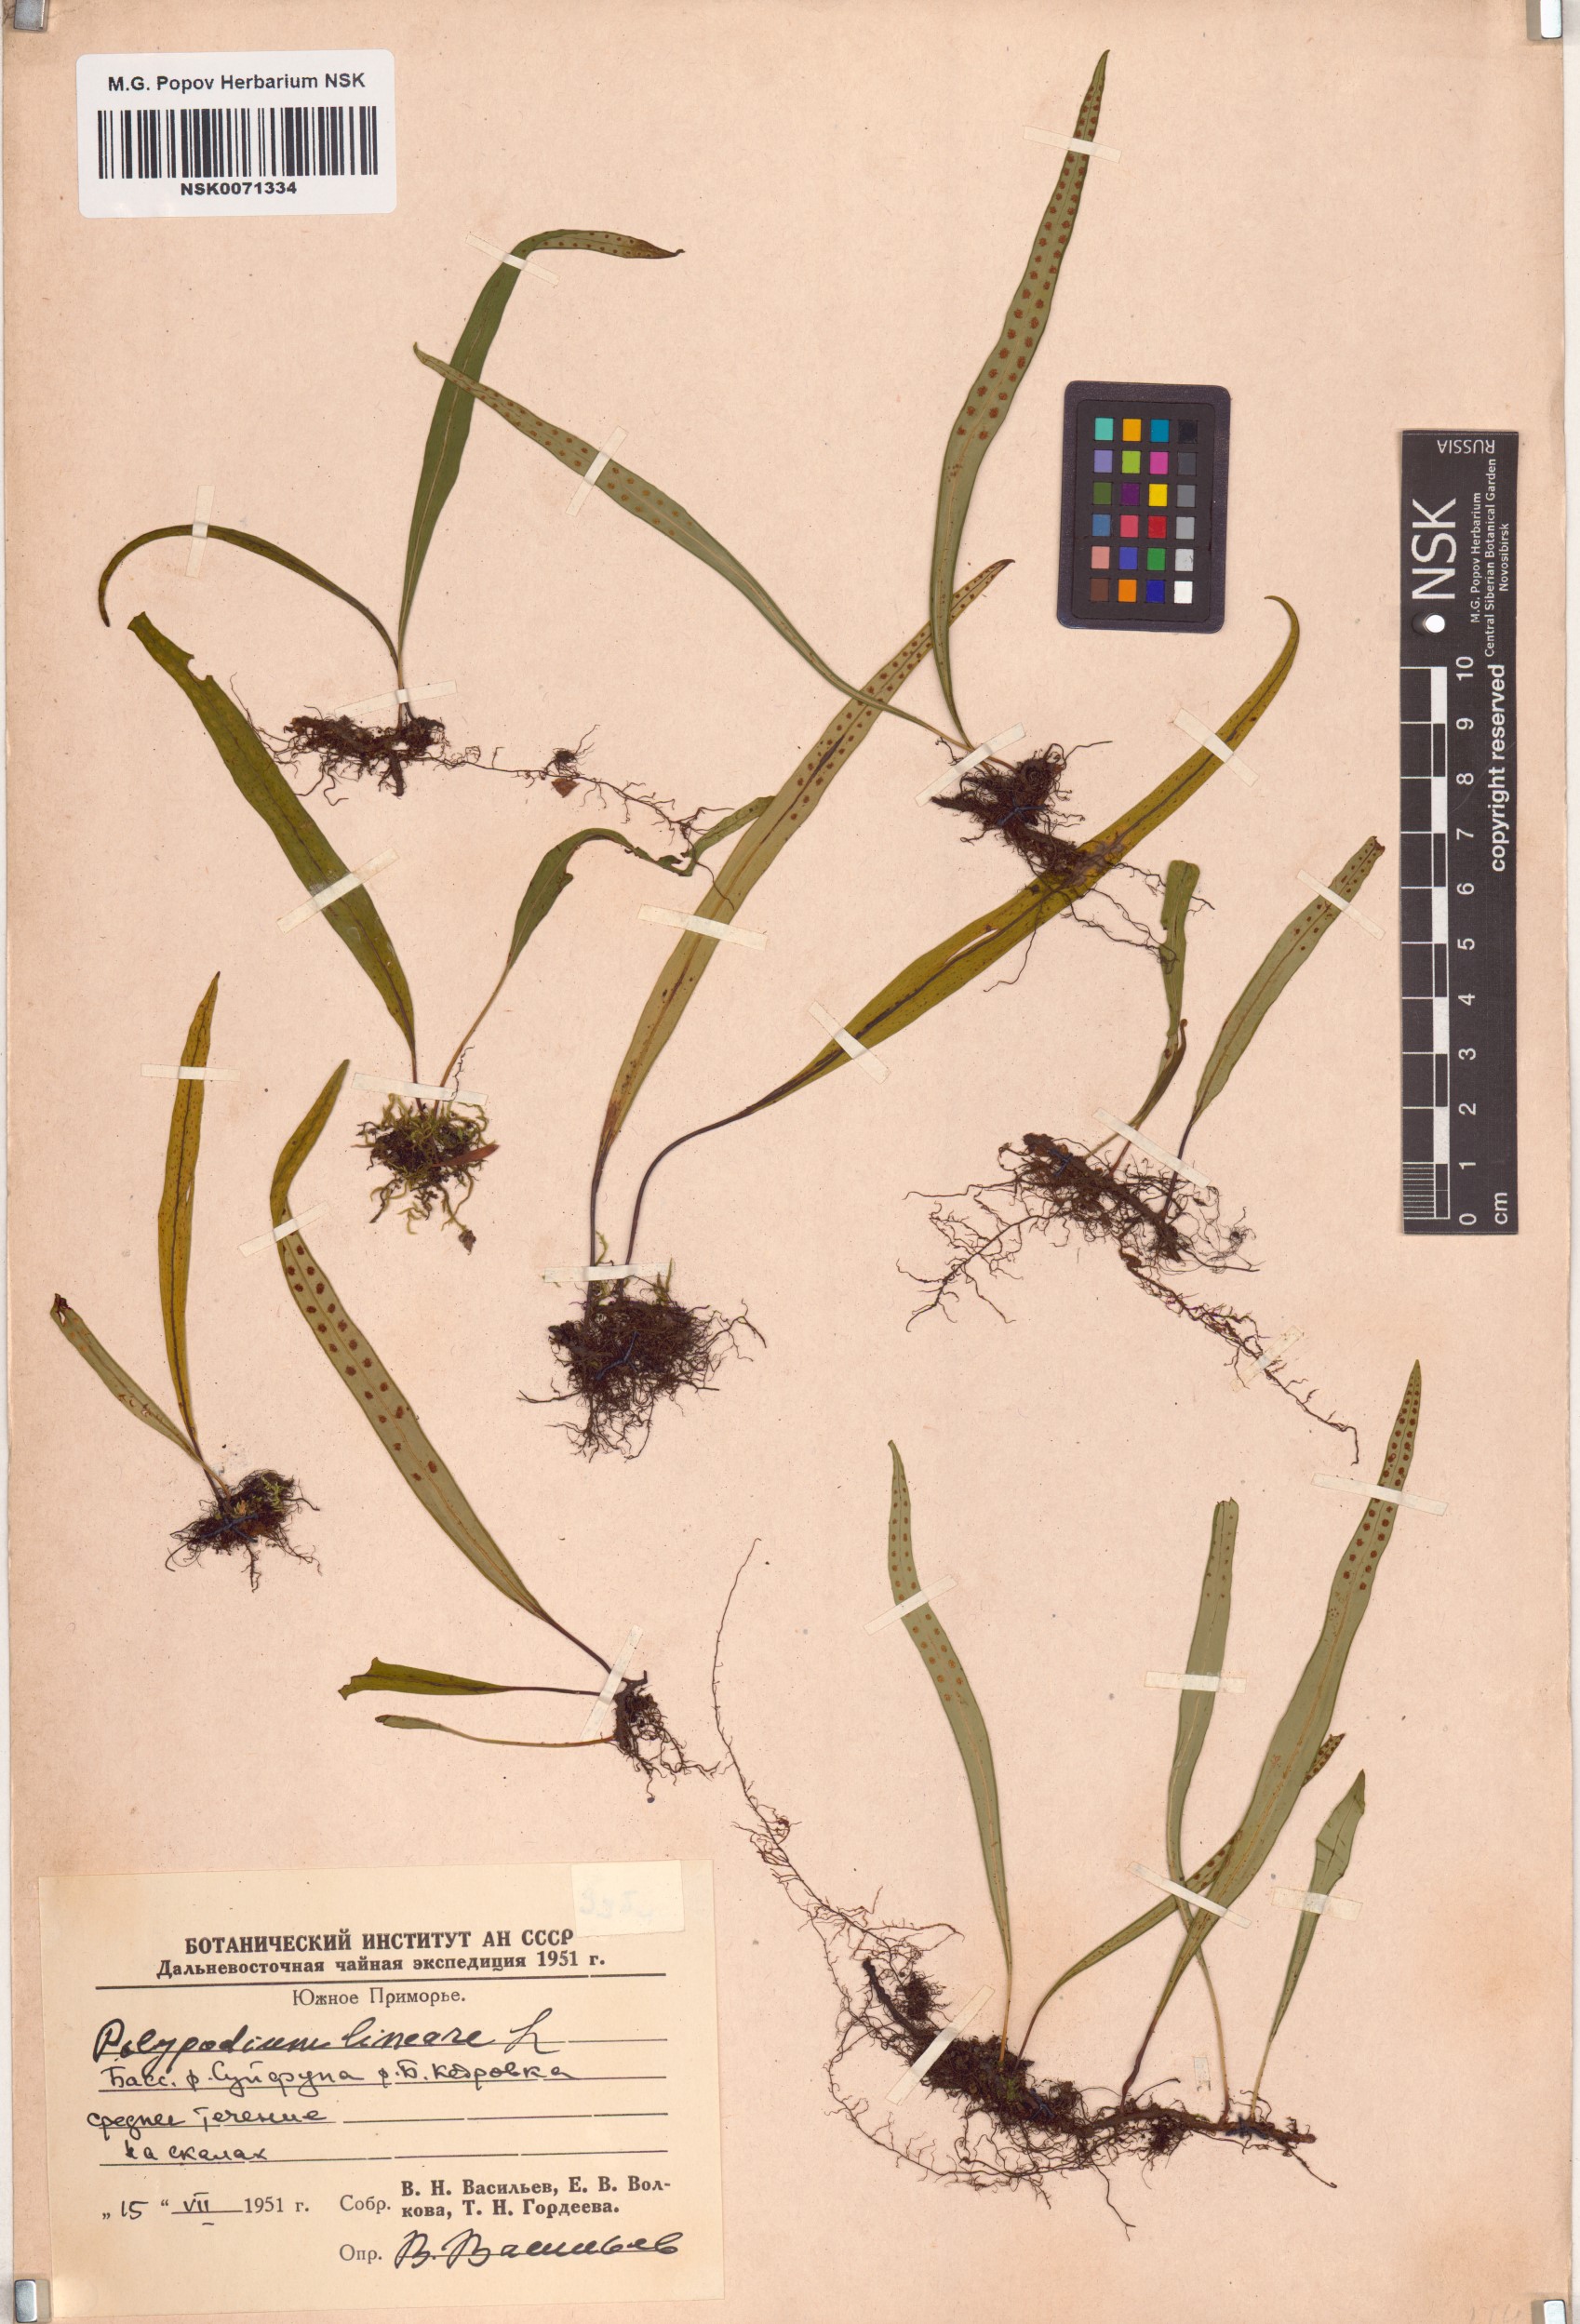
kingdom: Plantae
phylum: Tracheophyta
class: Polypodiopsida
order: Polypodiales
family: Polypodiaceae
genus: Lepisorus
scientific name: Lepisorus thunbergianus
